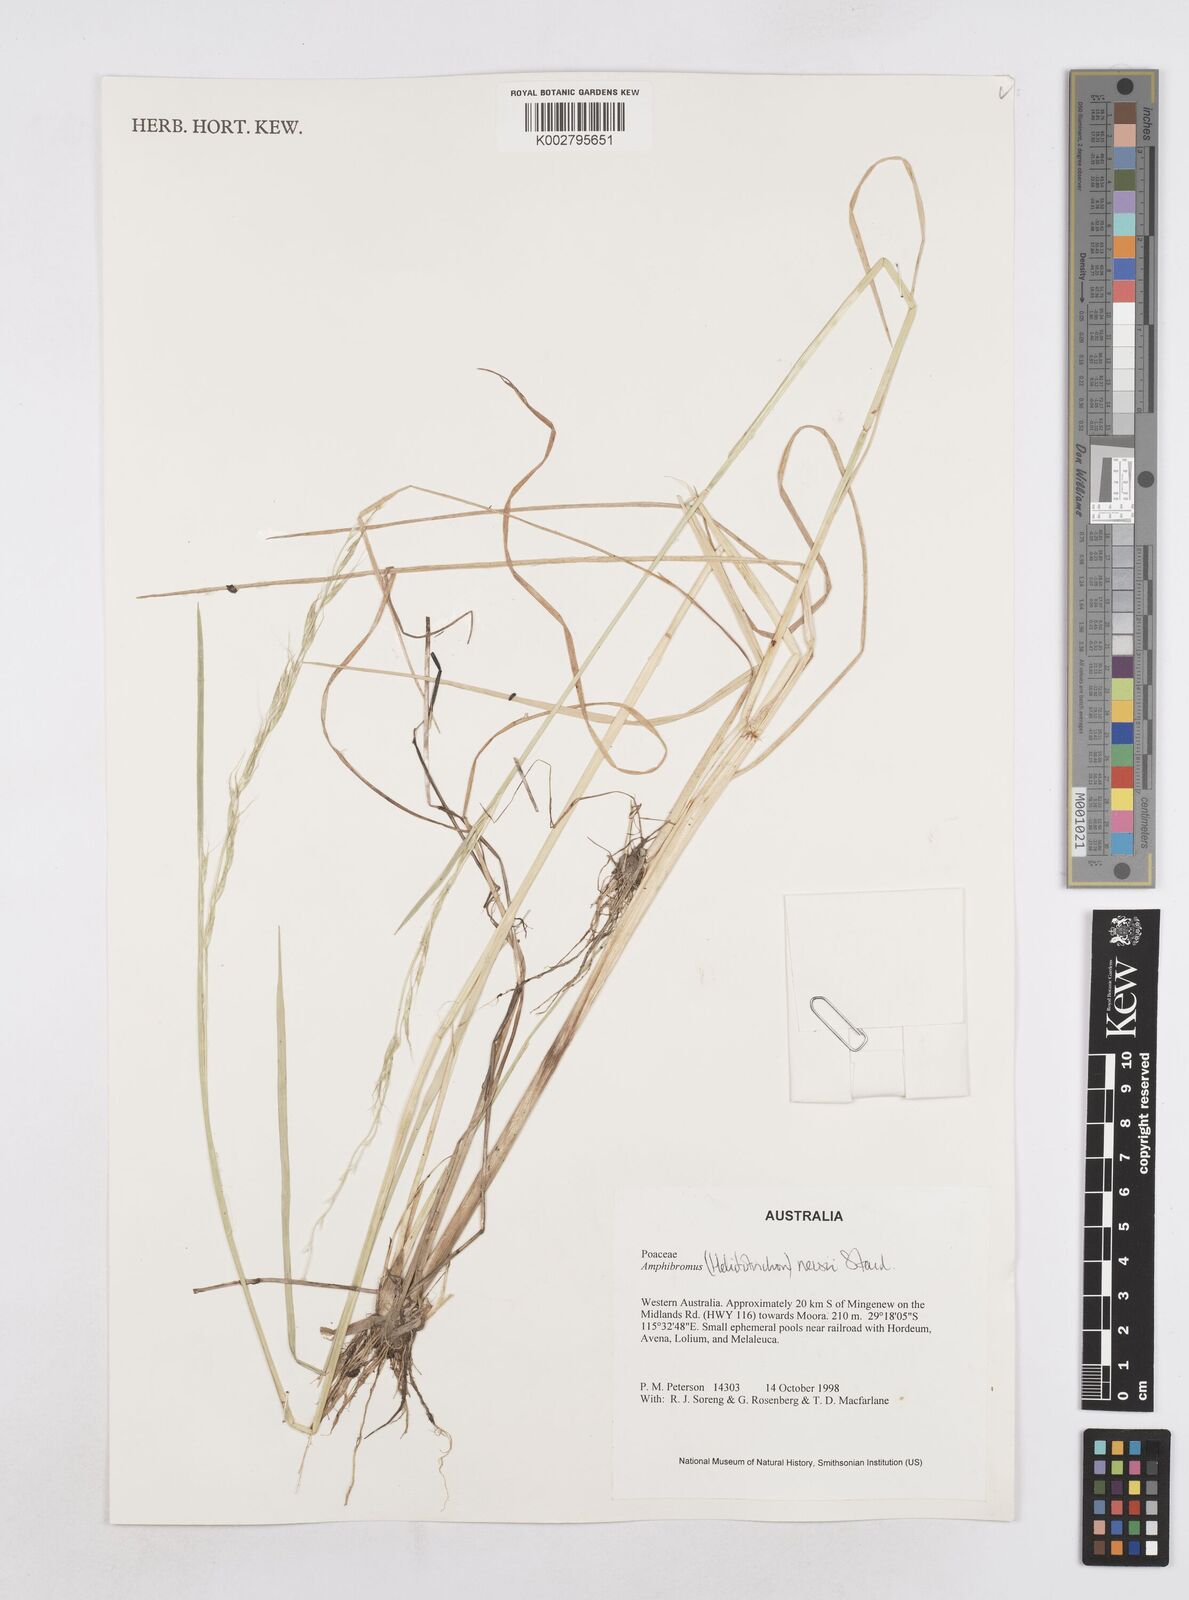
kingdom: Plantae
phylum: Tracheophyta
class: Liliopsida
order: Poales
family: Poaceae
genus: Amphibromus
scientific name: Amphibromus neesii
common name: Australian wallaby grass
